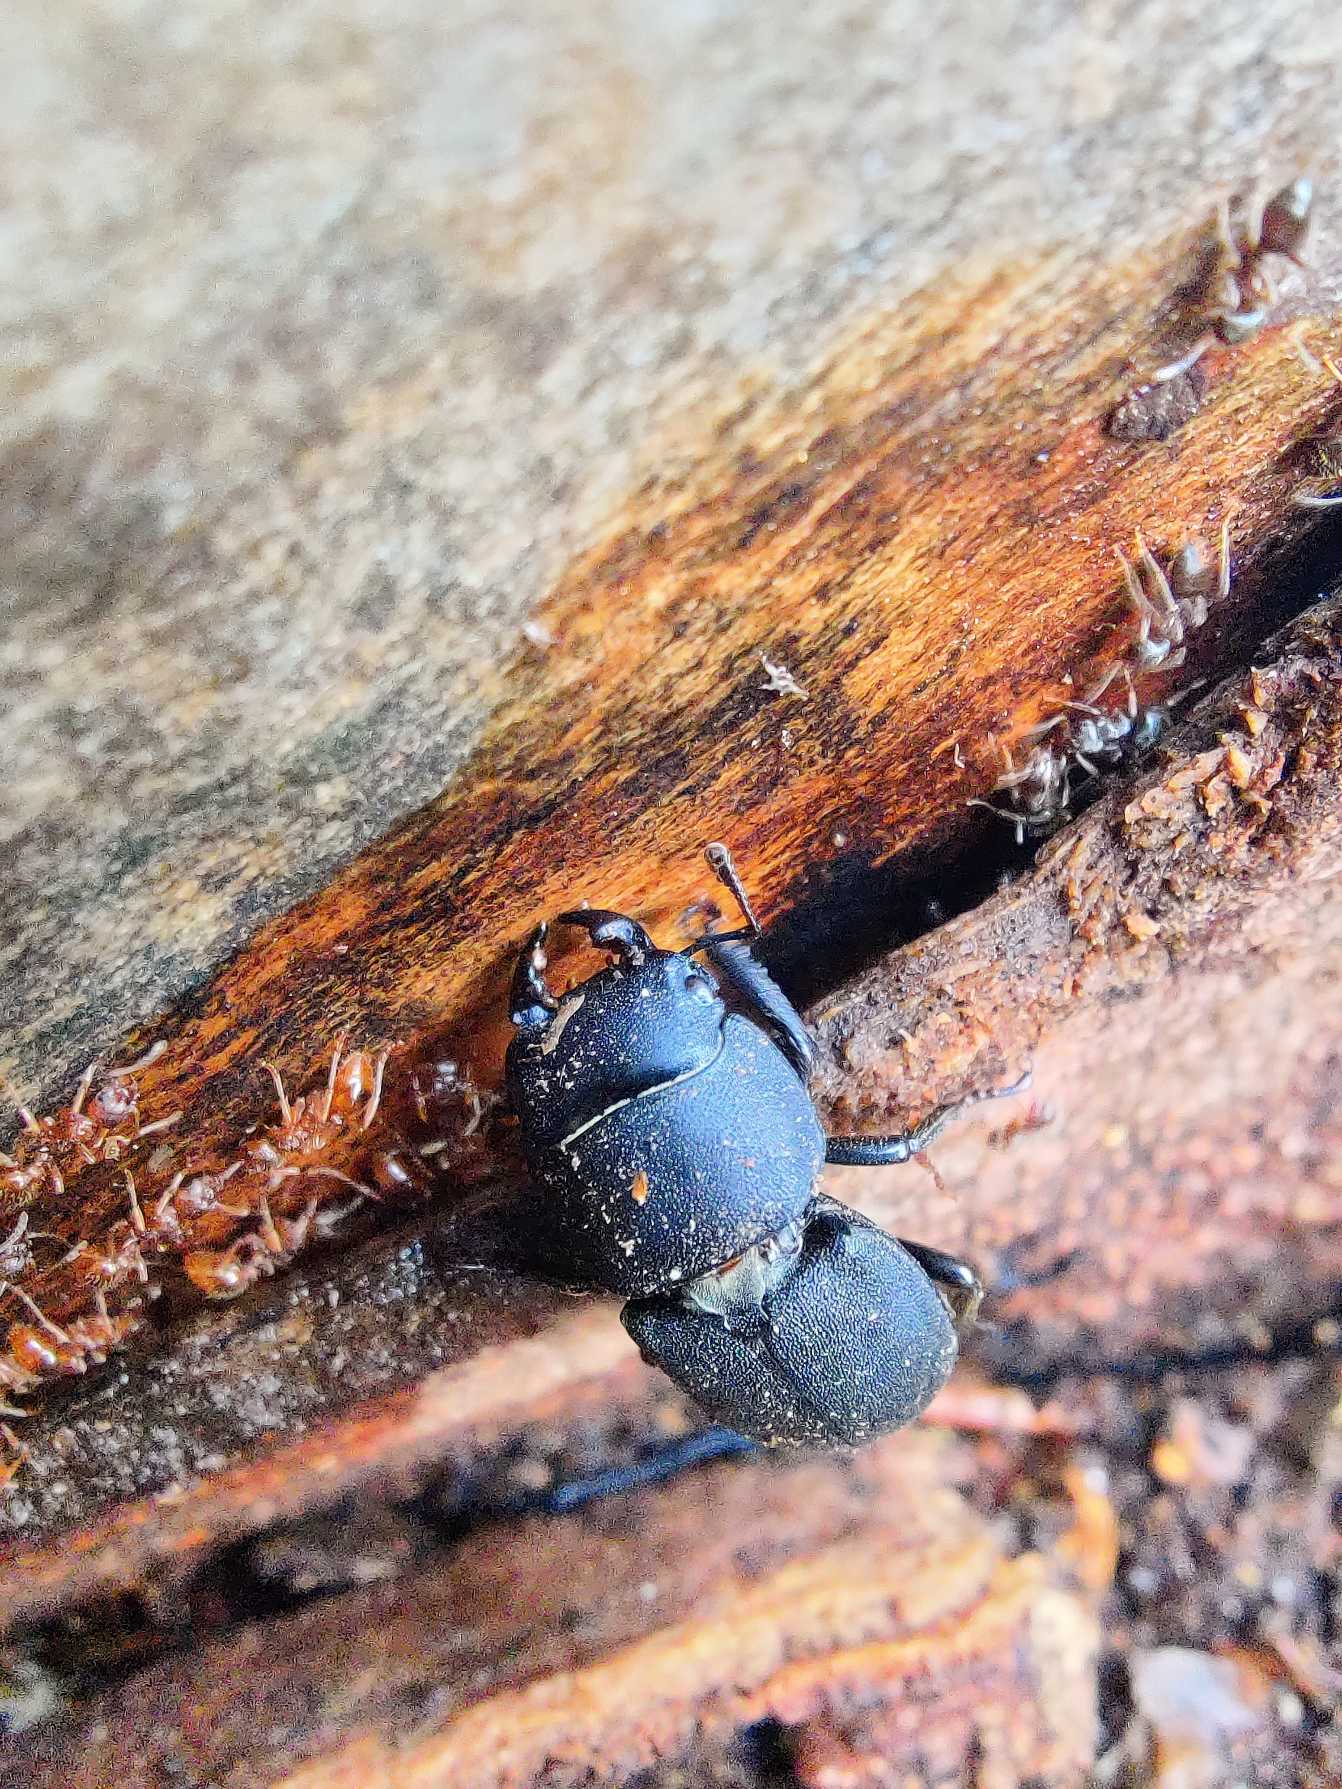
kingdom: Animalia
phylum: Arthropoda
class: Insecta
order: Coleoptera
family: Lucanidae
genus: Dorcus
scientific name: Dorcus parallelipipedus
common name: Bøghjort
